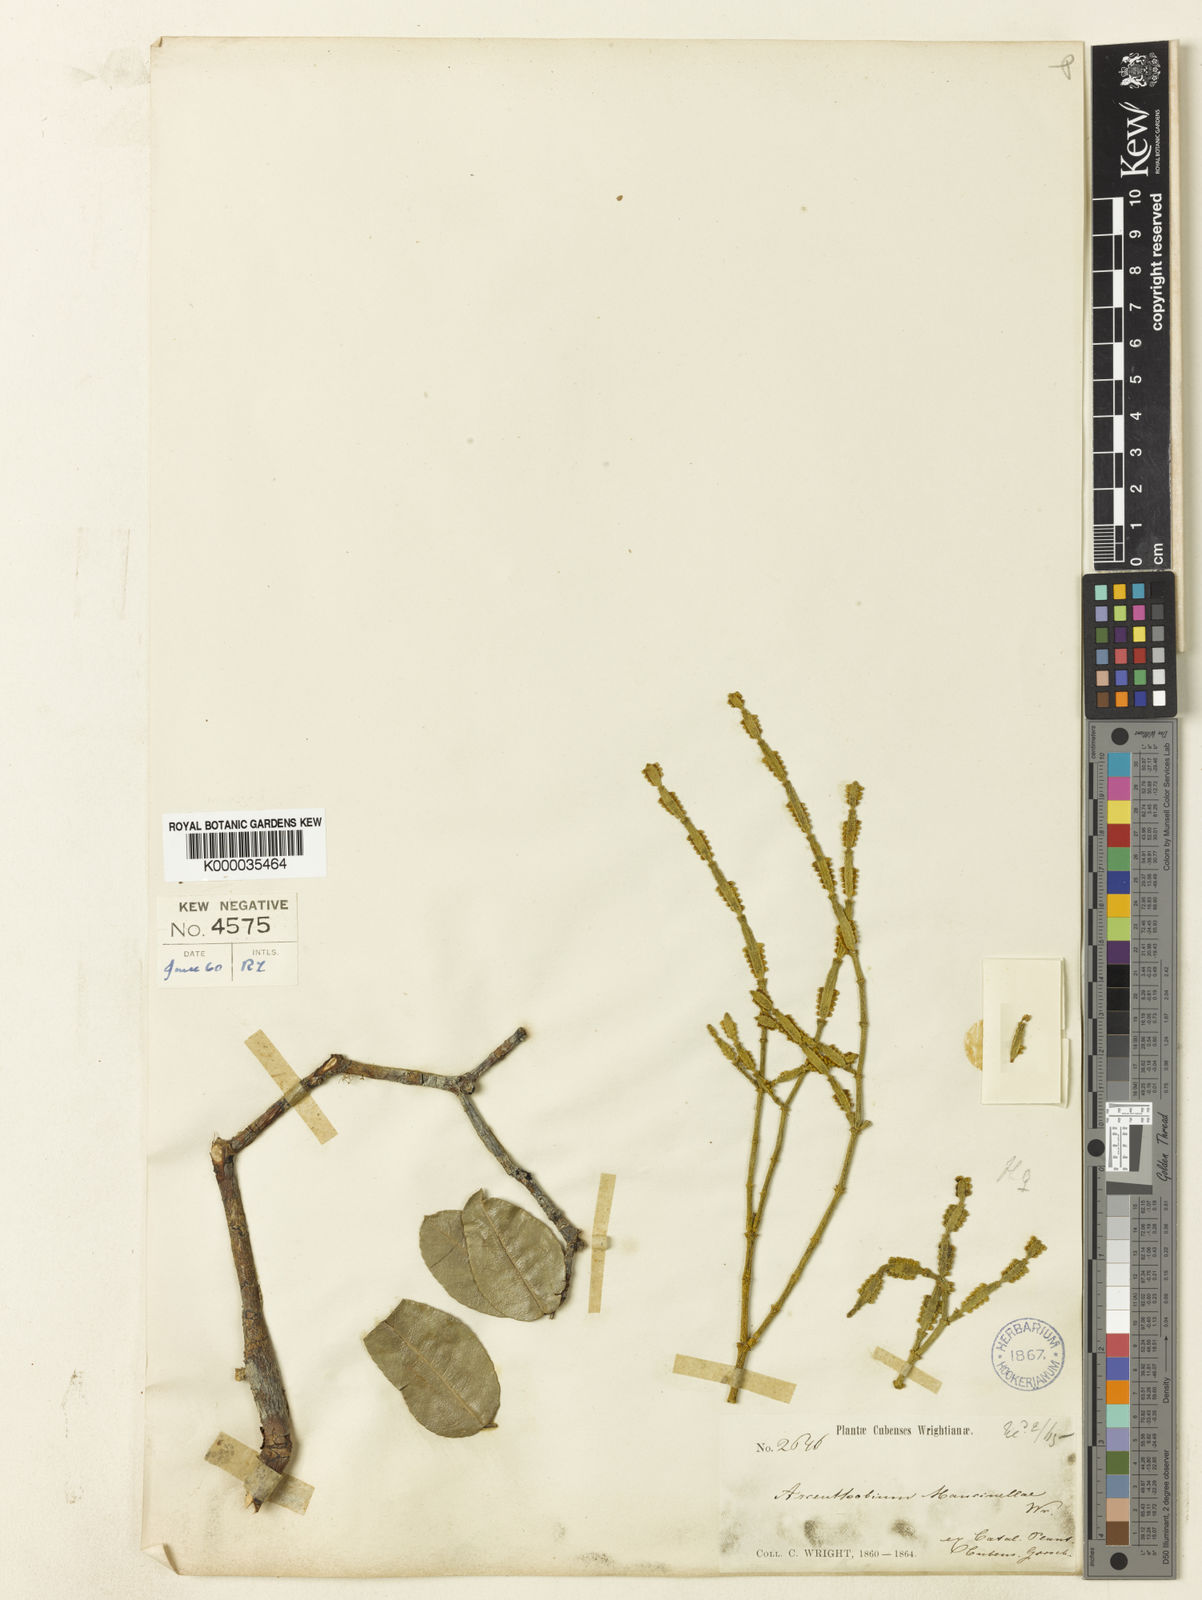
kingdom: Plantae
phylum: Tracheophyta
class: Magnoliopsida
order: Santalales
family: Viscaceae
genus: Dendrophthora
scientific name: Dendrophthora mancinellae
